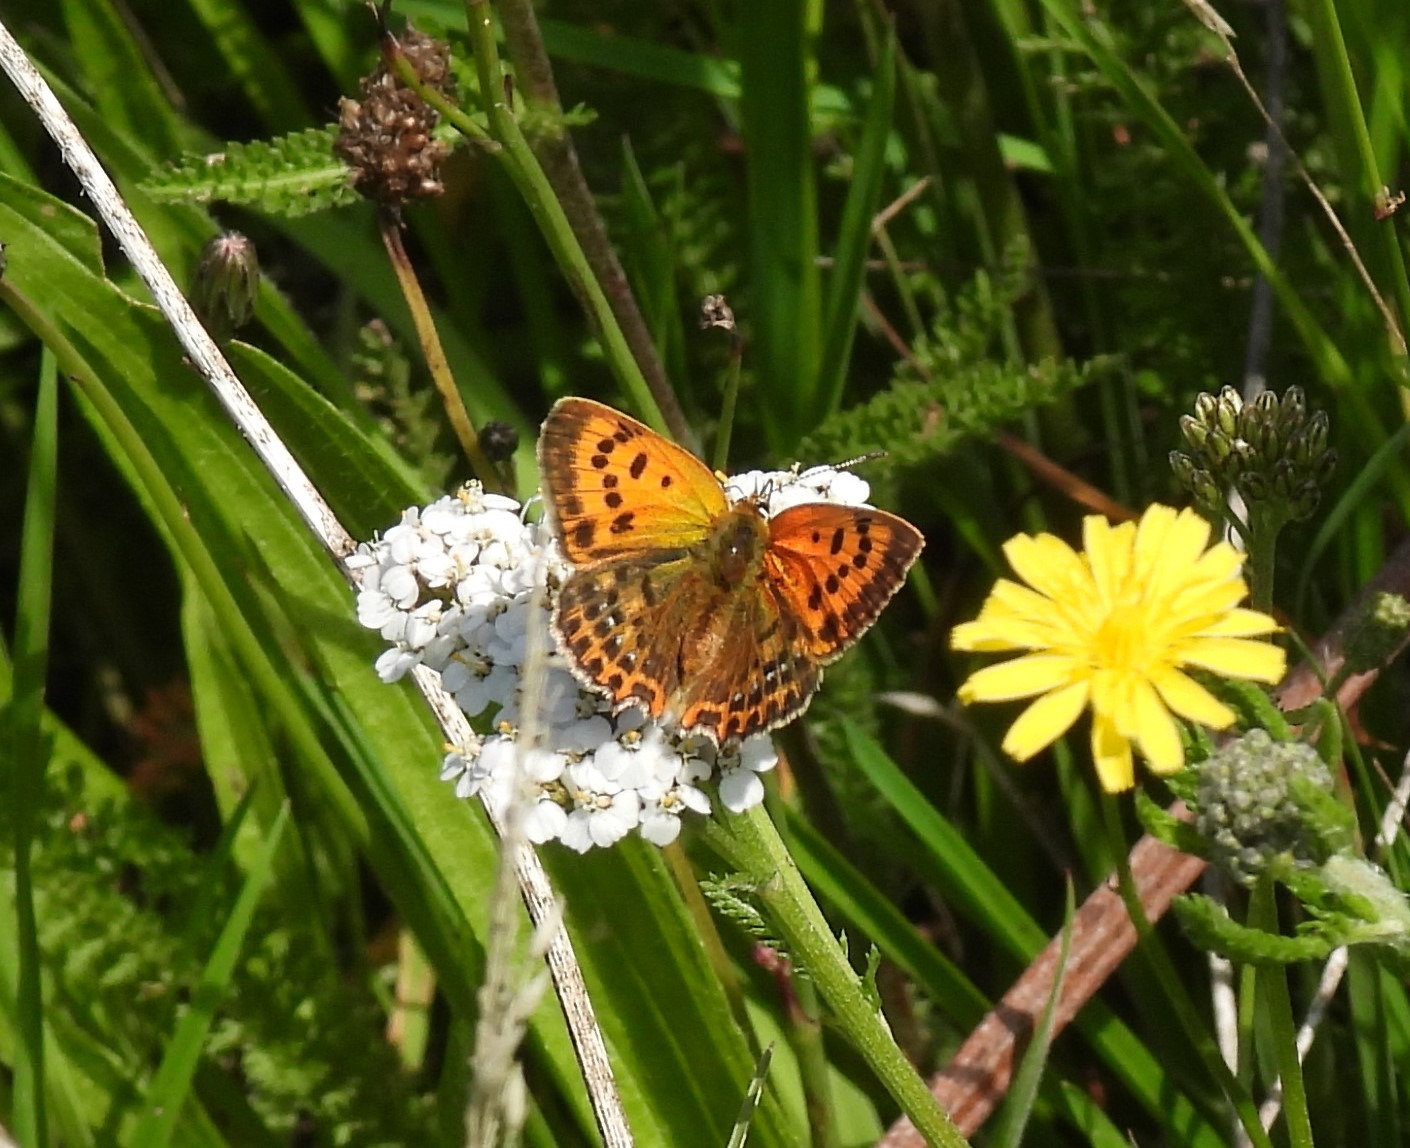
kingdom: Animalia
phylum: Arthropoda
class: Insecta
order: Lepidoptera
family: Lycaenidae
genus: Lycaena
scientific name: Lycaena virgaureae
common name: Dukatsommerfugl
